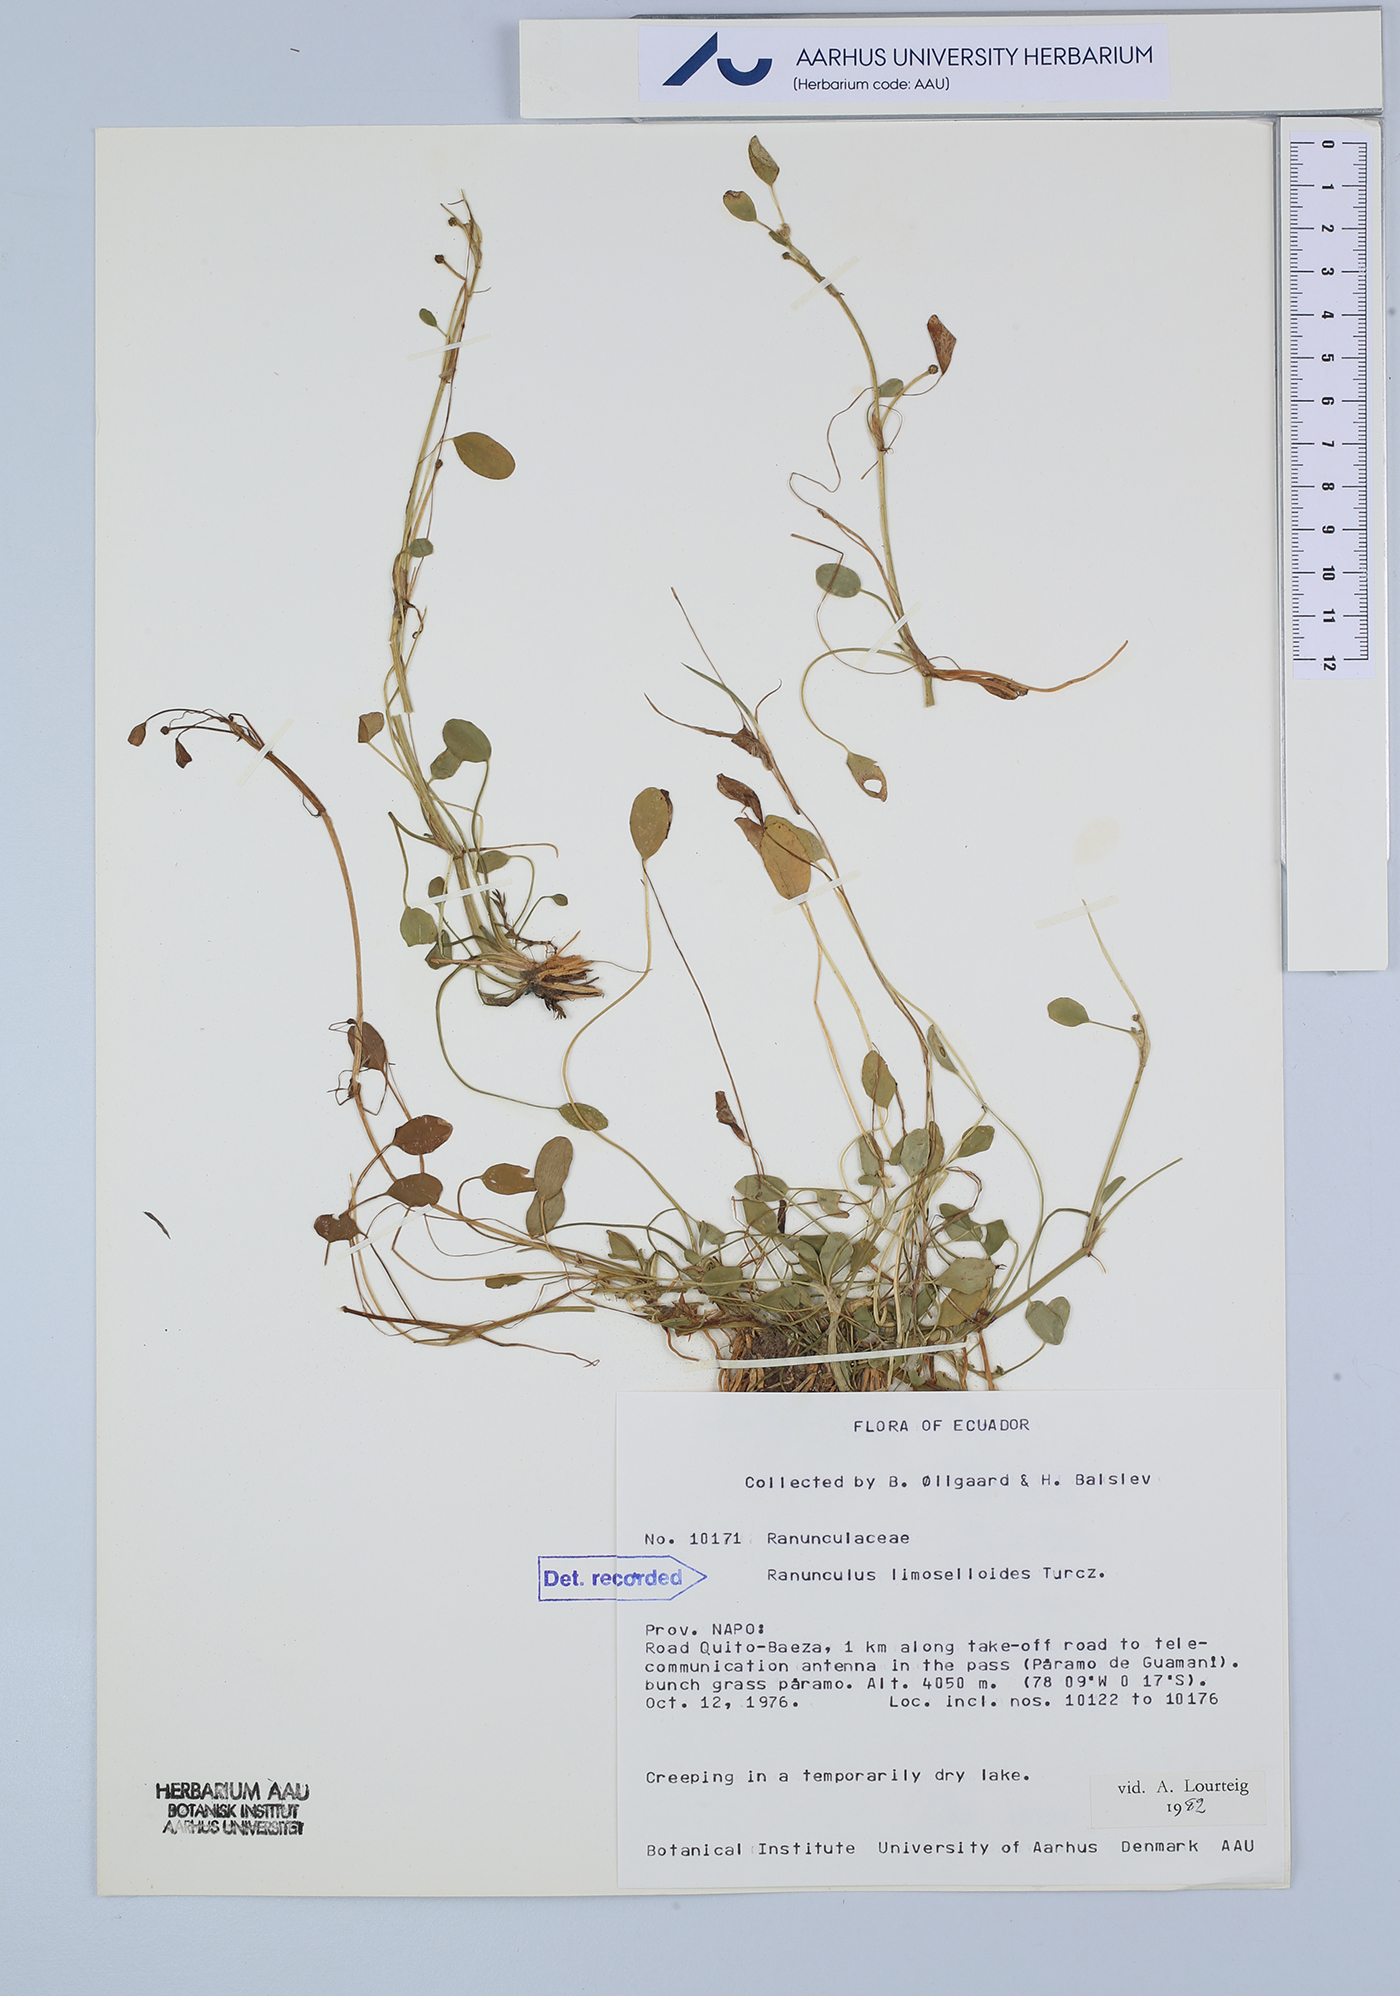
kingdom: Plantae
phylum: Tracheophyta
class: Magnoliopsida
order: Ranunculales
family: Ranunculaceae
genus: Ranunculus
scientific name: Ranunculus limoselloides
